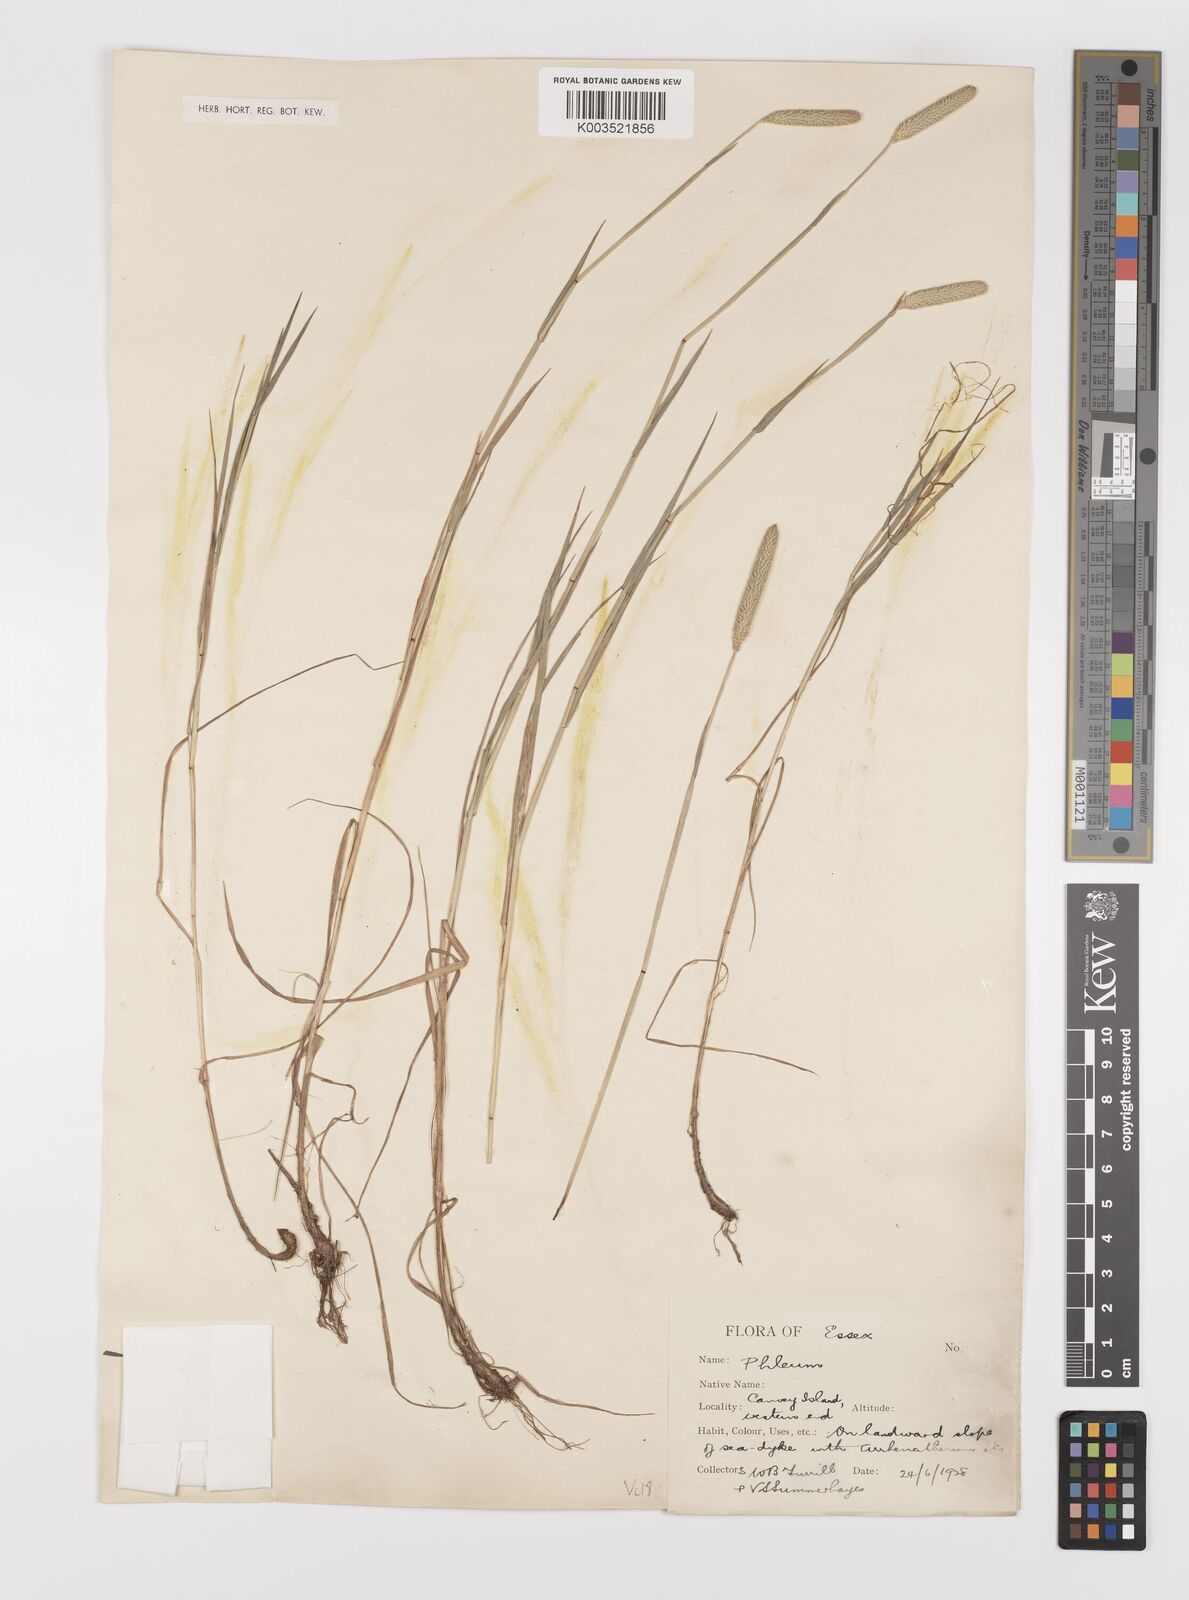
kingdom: Plantae
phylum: Tracheophyta
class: Liliopsida
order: Poales
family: Poaceae
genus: Phleum
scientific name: Phleum bertolonii
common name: Smaller cat's-tail
